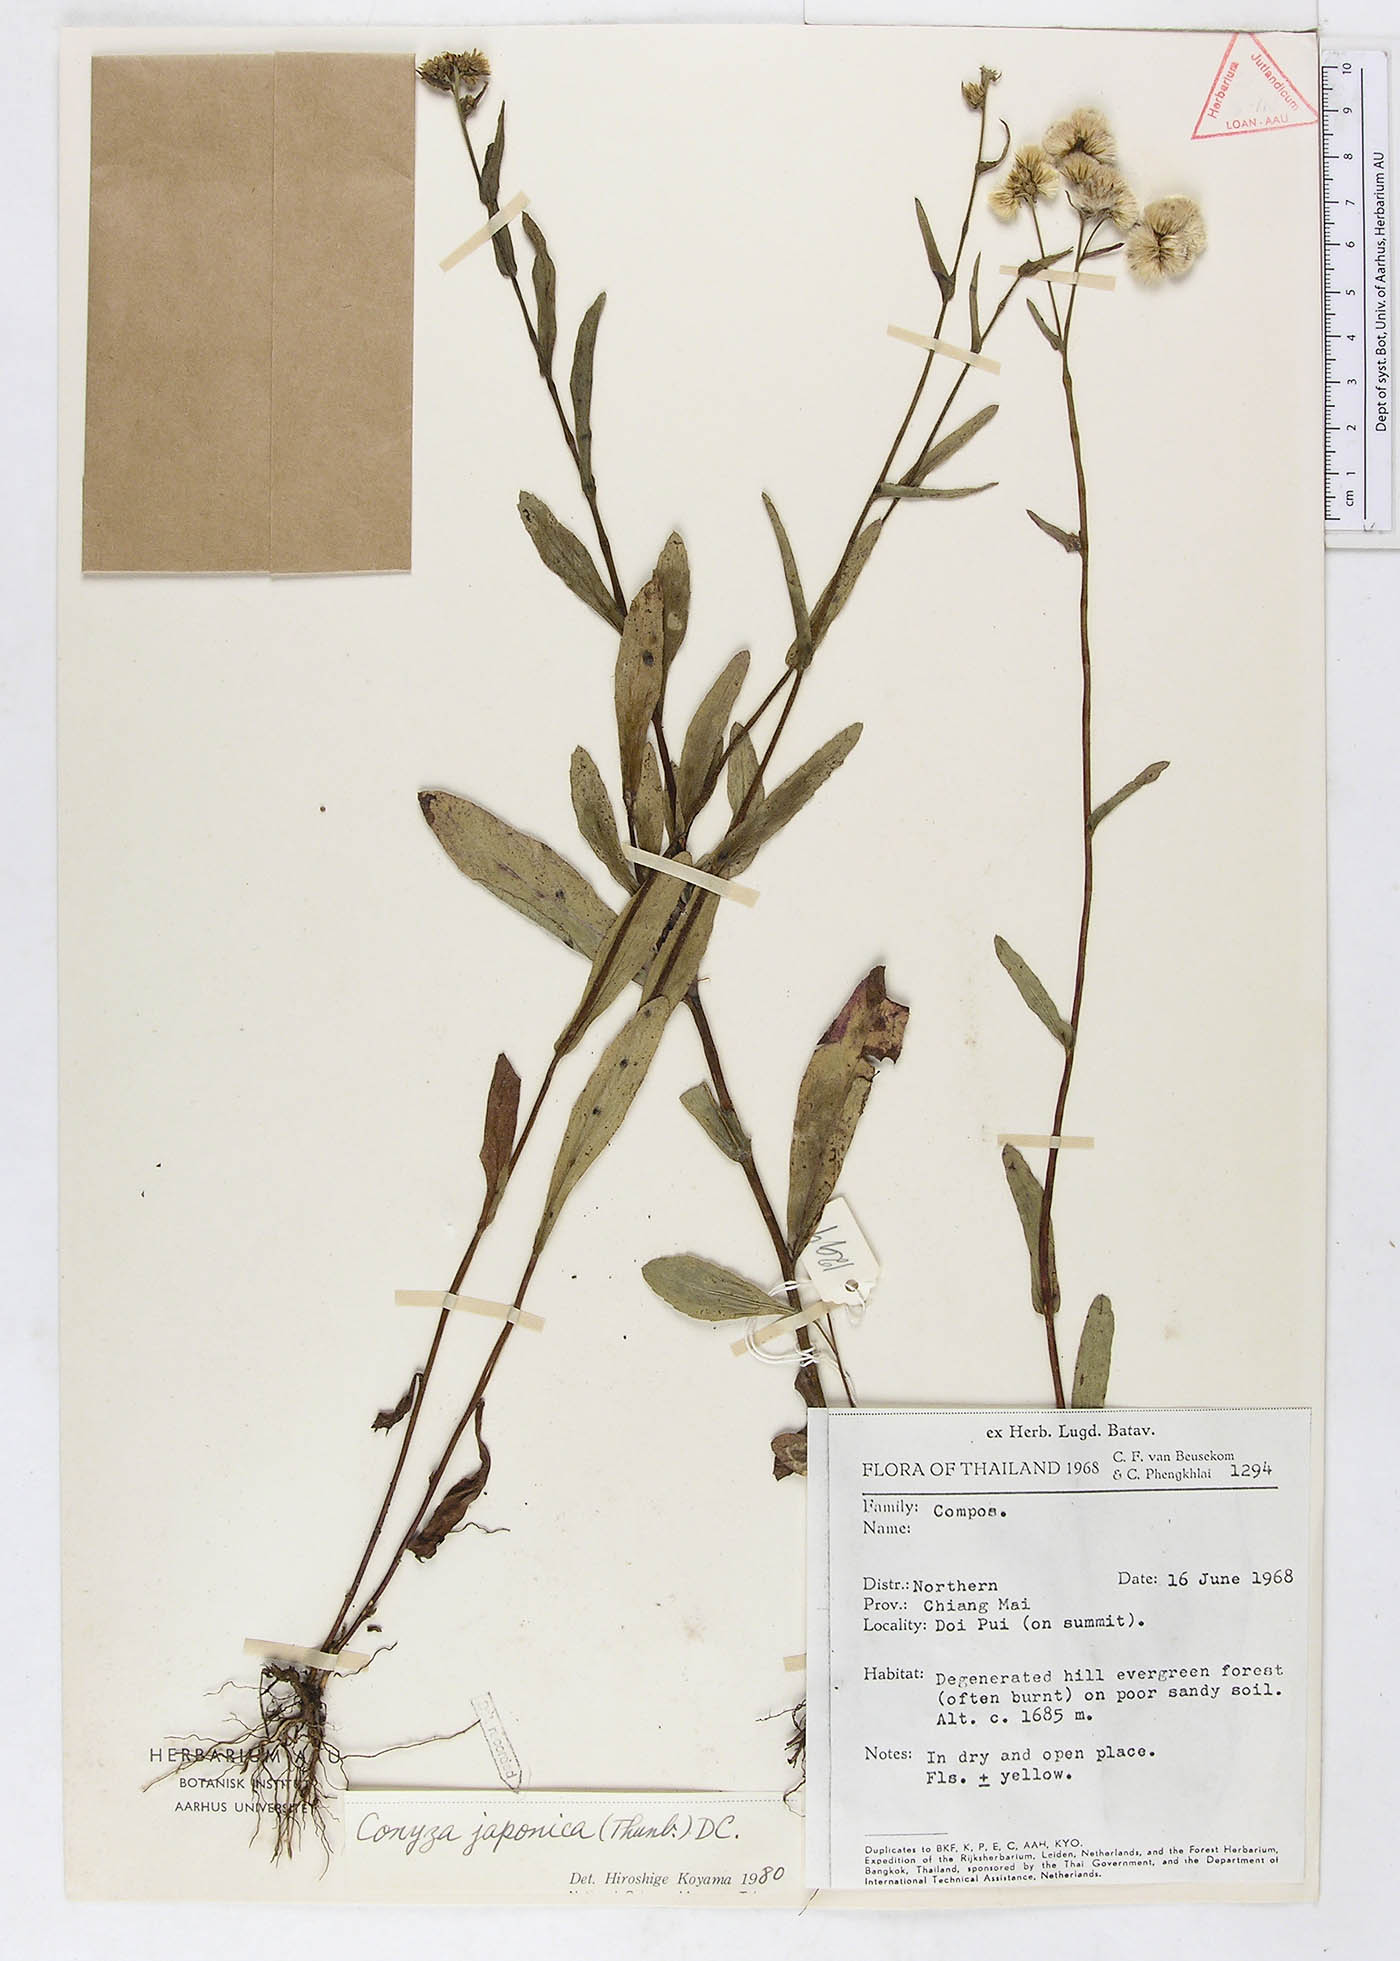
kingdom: Plantae
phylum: Tracheophyta
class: Magnoliopsida
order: Asterales
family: Asteraceae
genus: Eschenbachia
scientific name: Eschenbachia japonica
